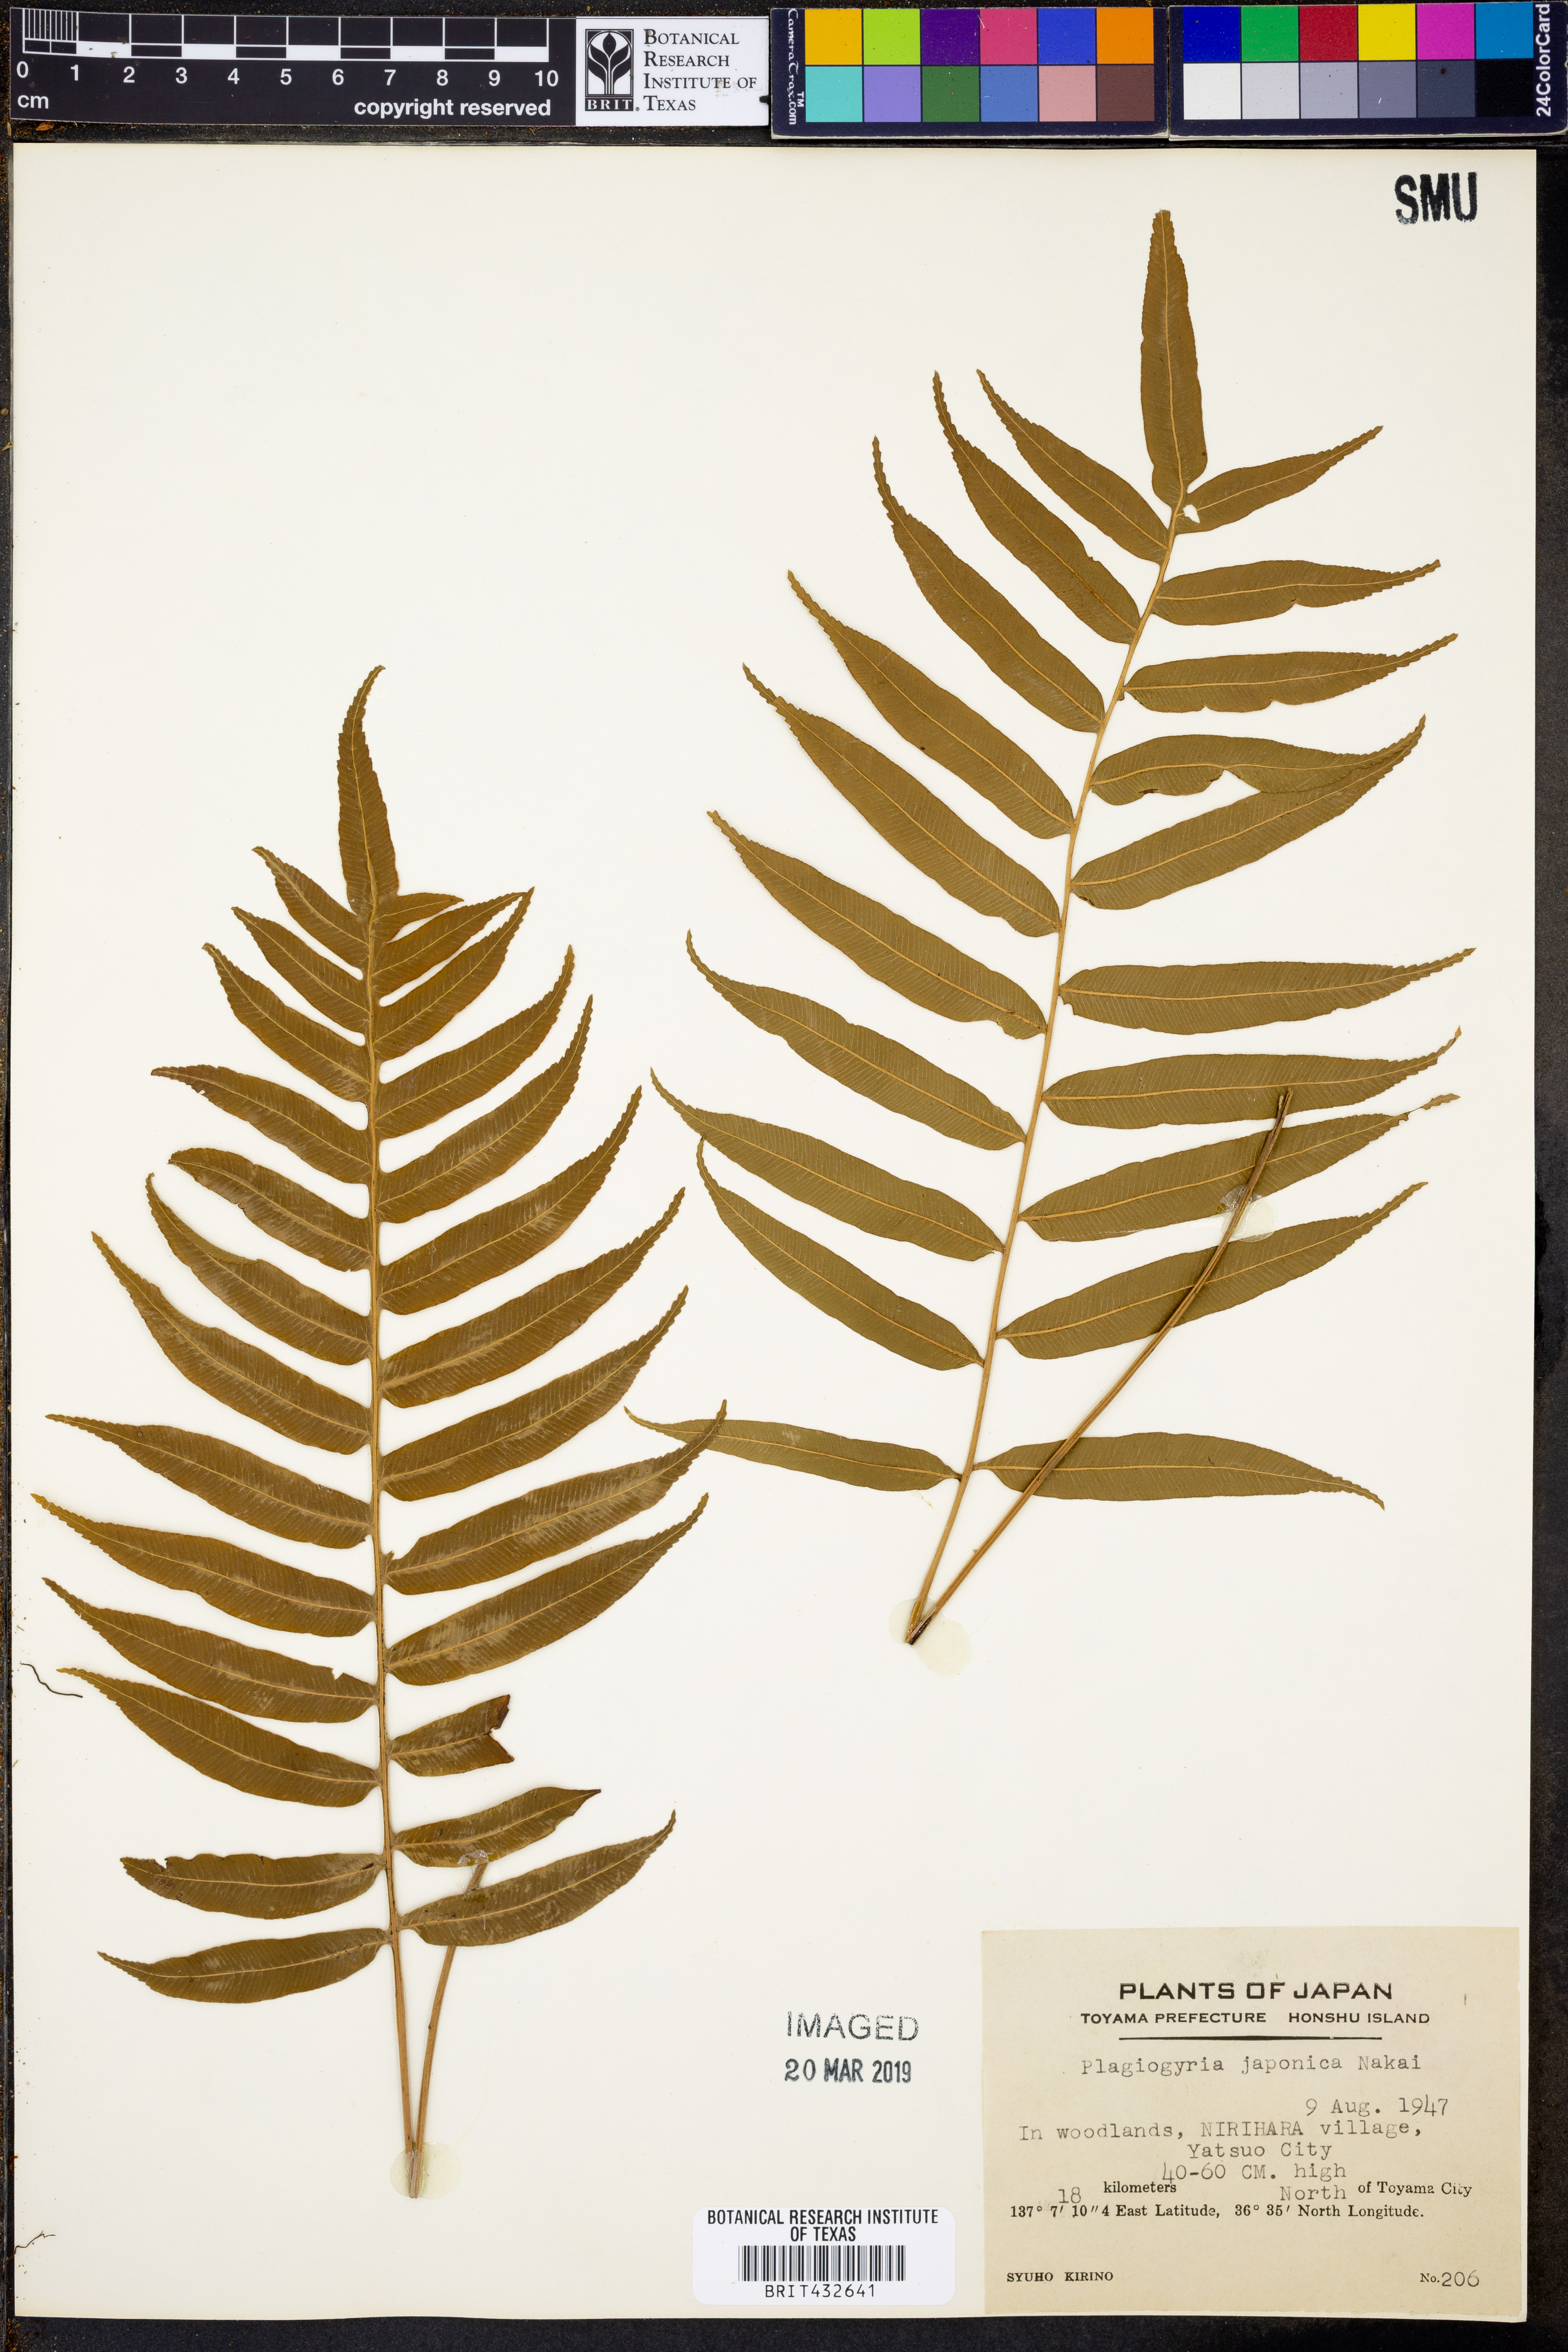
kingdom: Plantae
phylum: Tracheophyta
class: Polypodiopsida
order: Cyatheales
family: Plagiogyriaceae
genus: Plagiogyria
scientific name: Plagiogyria japonica
